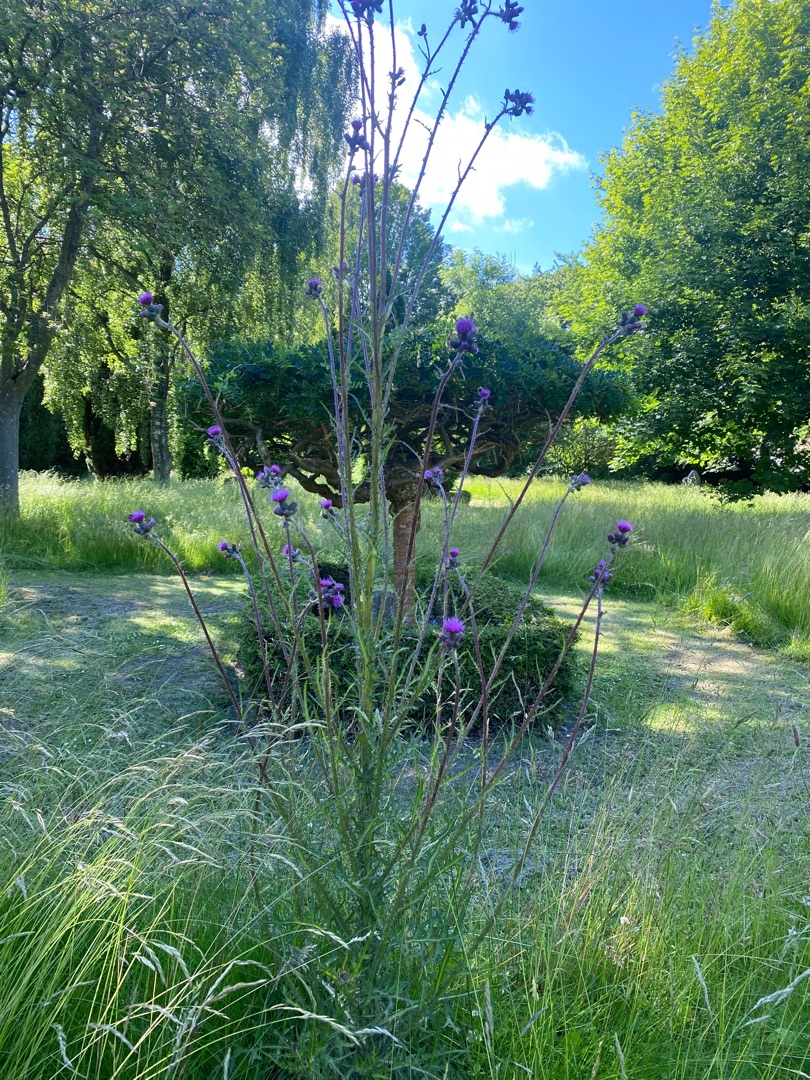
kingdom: Plantae
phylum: Tracheophyta
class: Magnoliopsida
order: Asterales
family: Asteraceae
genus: Cirsium
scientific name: Cirsium palustre
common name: Kær-tidsel
